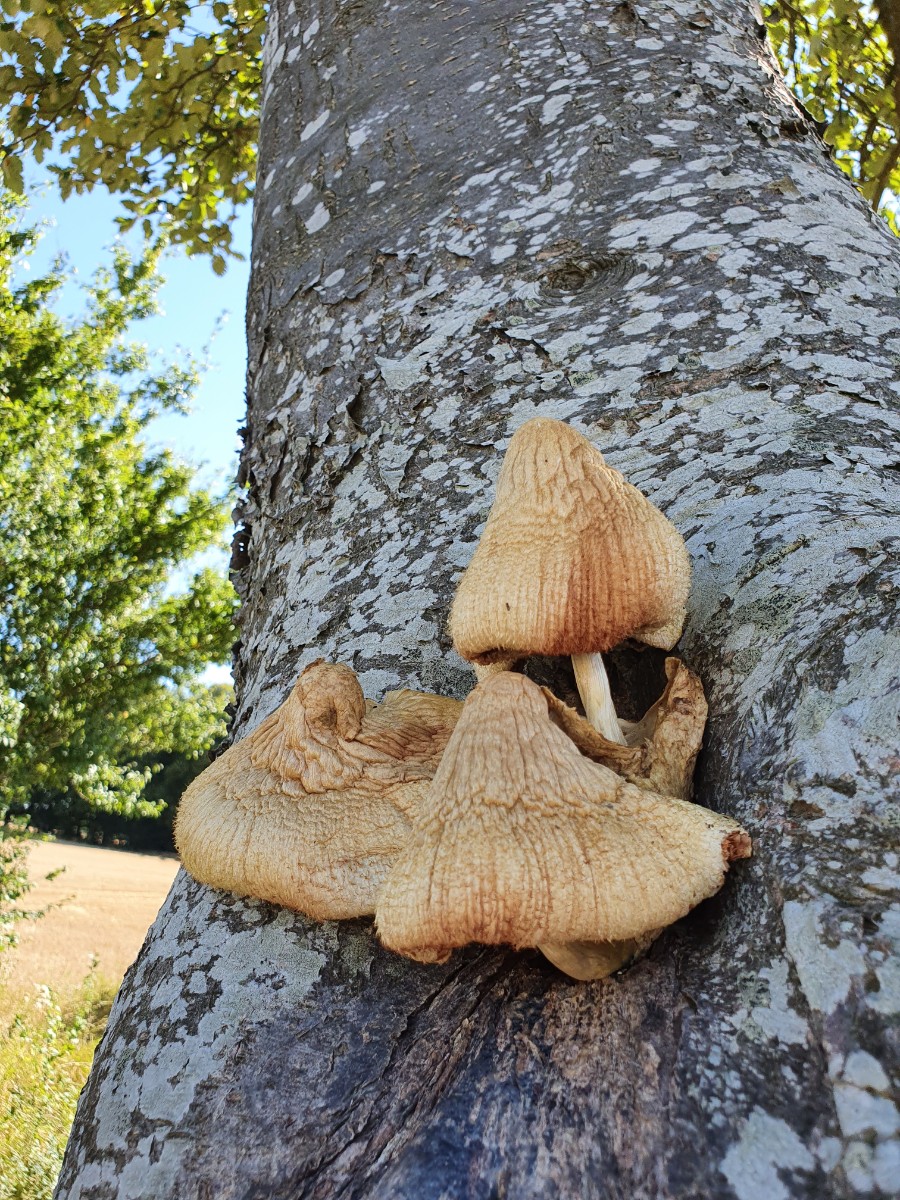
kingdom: Fungi
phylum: Basidiomycota
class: Agaricomycetes
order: Agaricales
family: Pluteaceae
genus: Volvariella
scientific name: Volvariella bombycina
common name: silkehåret posesvamp
